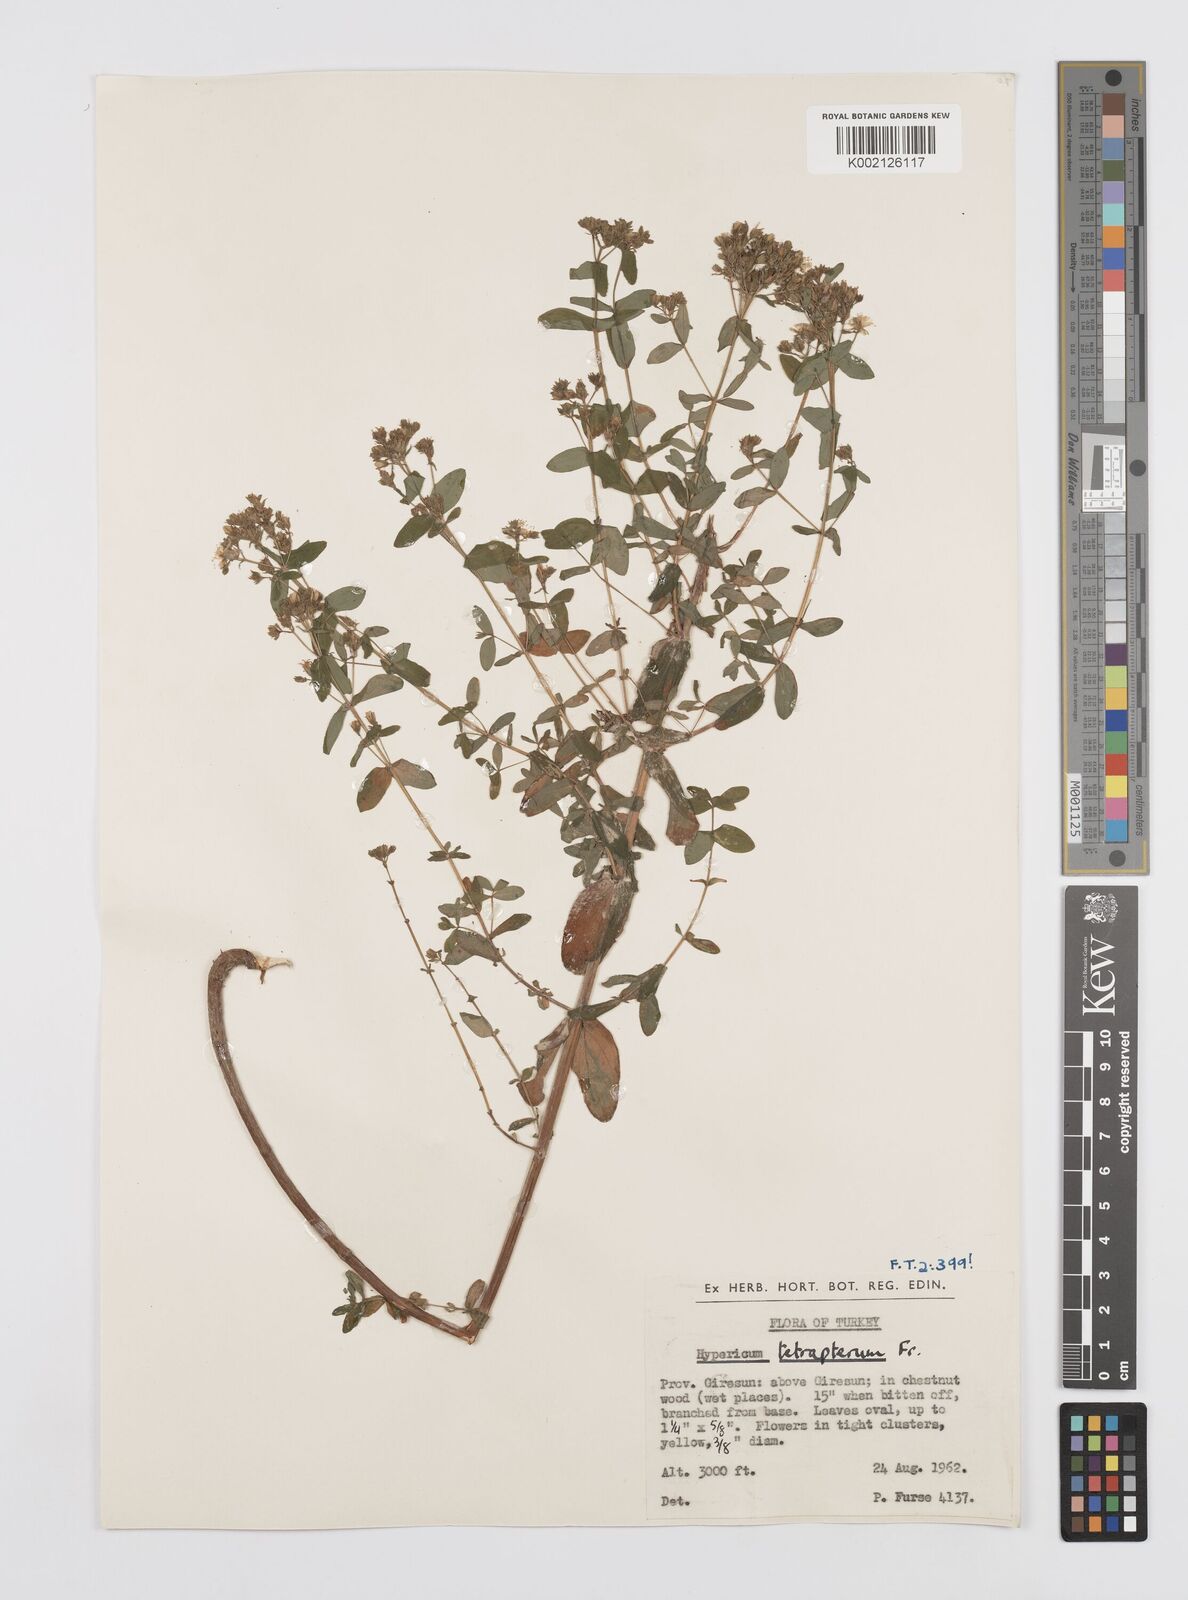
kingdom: Plantae
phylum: Tracheophyta
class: Magnoliopsida
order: Malpighiales
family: Hypericaceae
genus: Hypericum
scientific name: Hypericum tetrapterum
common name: Square-stalked st. john's-wort
